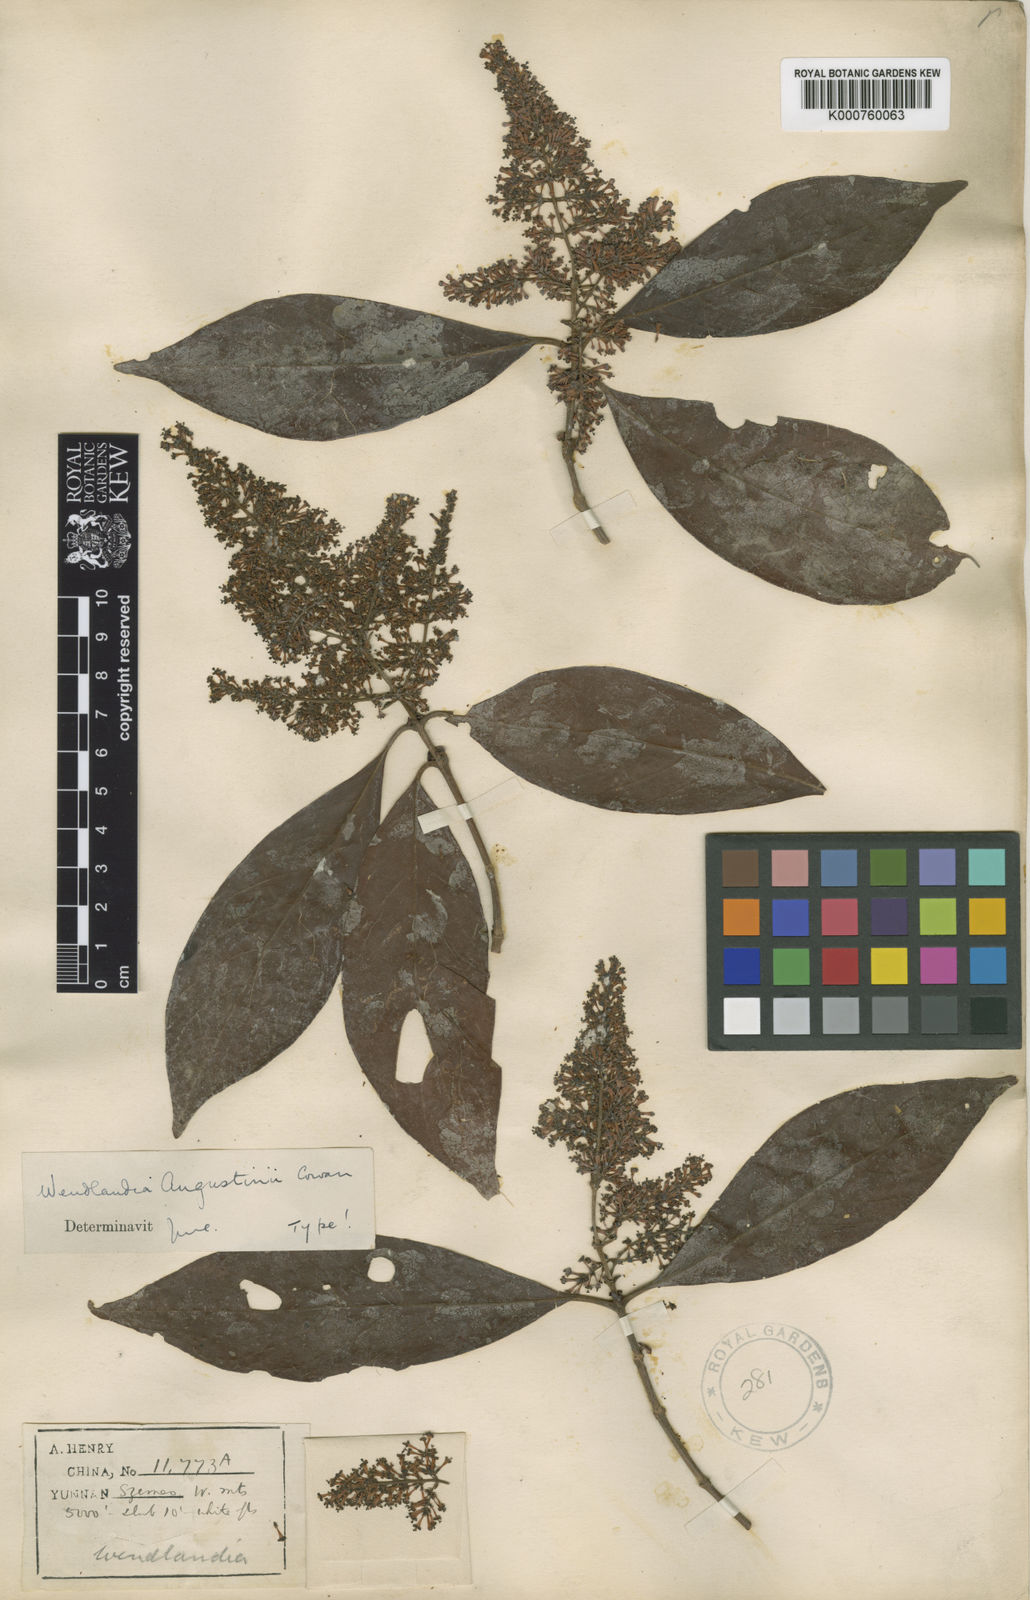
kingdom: Plantae
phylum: Tracheophyta
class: Magnoliopsida
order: Gentianales
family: Rubiaceae
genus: Wendlandia
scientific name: Wendlandia augustini
